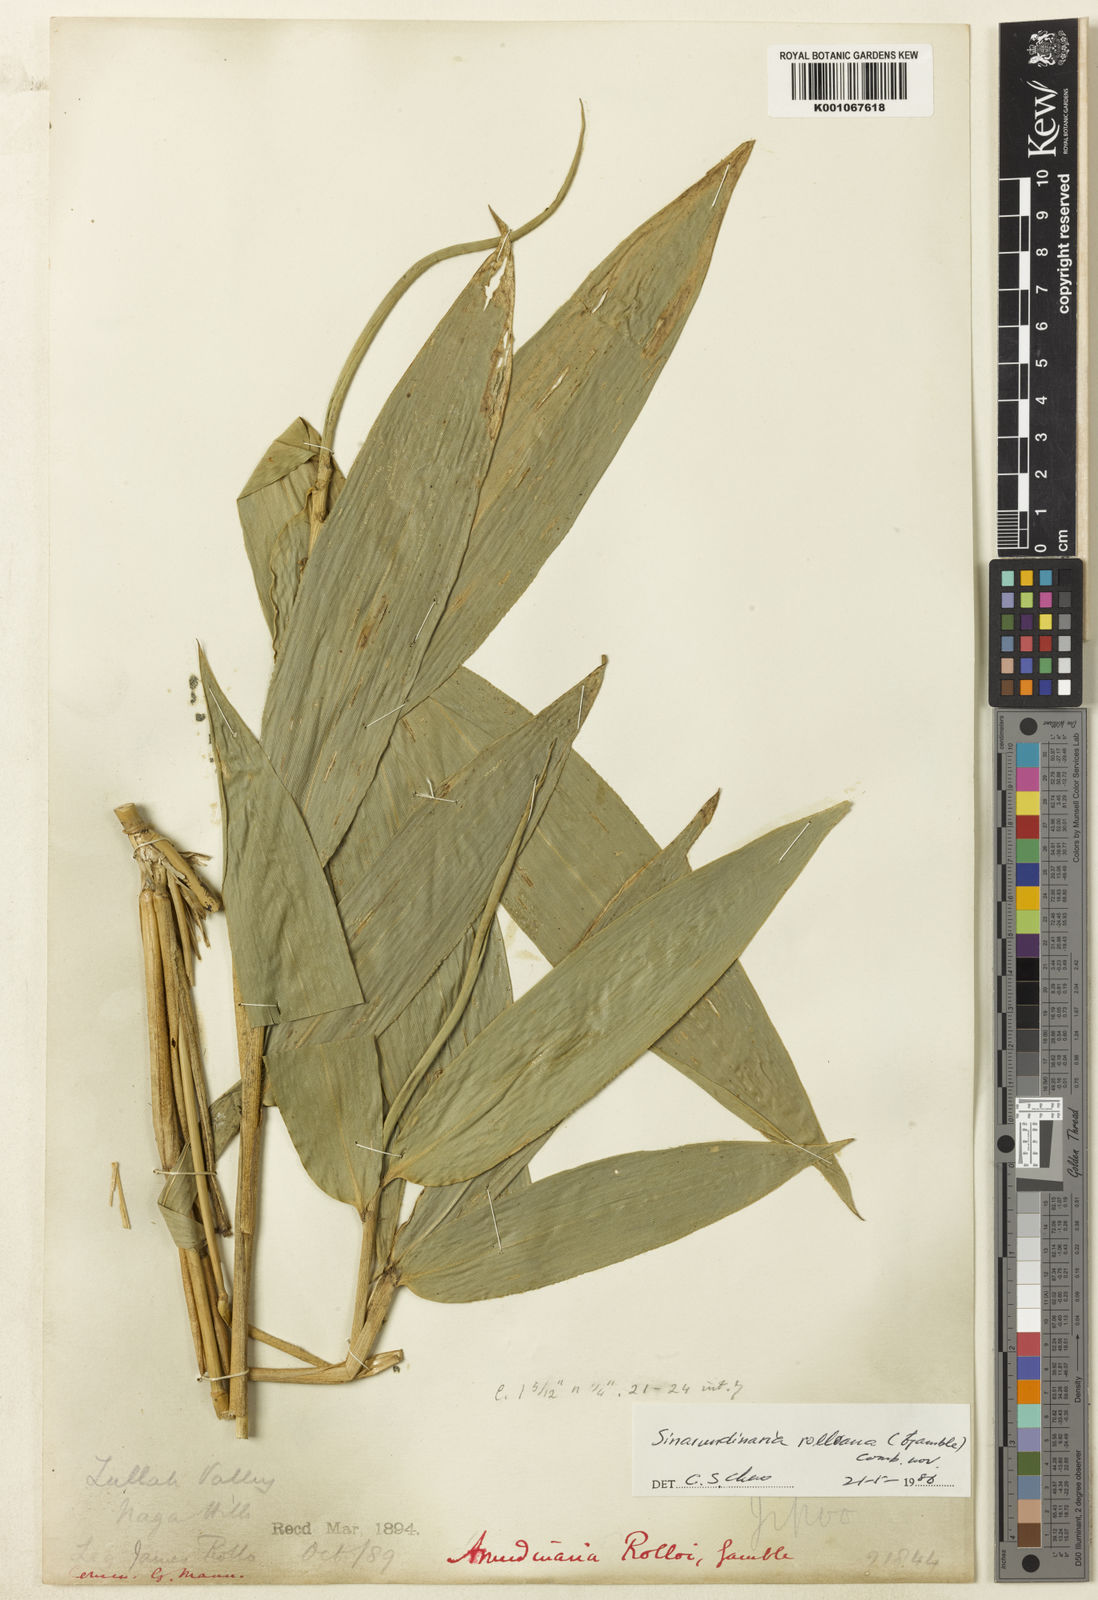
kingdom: Plantae
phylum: Tracheophyta
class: Liliopsida
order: Poales
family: Poaceae
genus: Yushania
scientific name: Yushania rolloana
